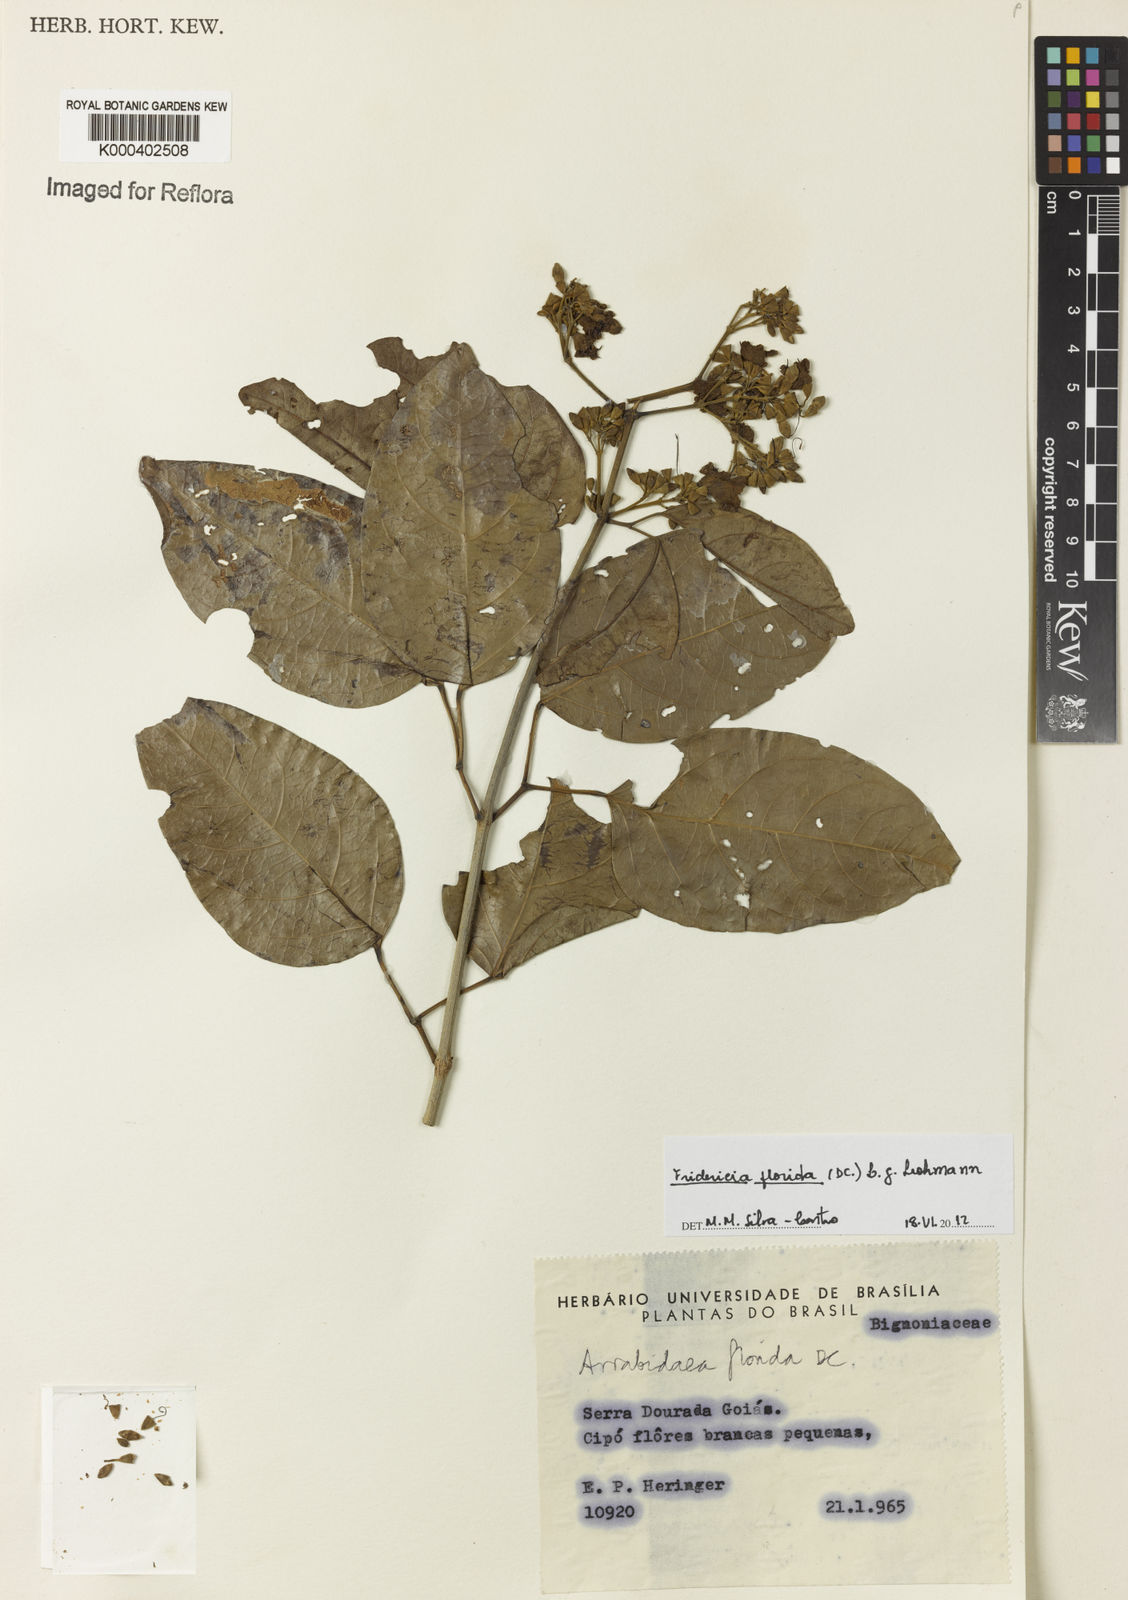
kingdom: Plantae
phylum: Tracheophyta
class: Magnoliopsida
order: Lamiales
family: Bignoniaceae
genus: Fridericia
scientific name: Fridericia florida
